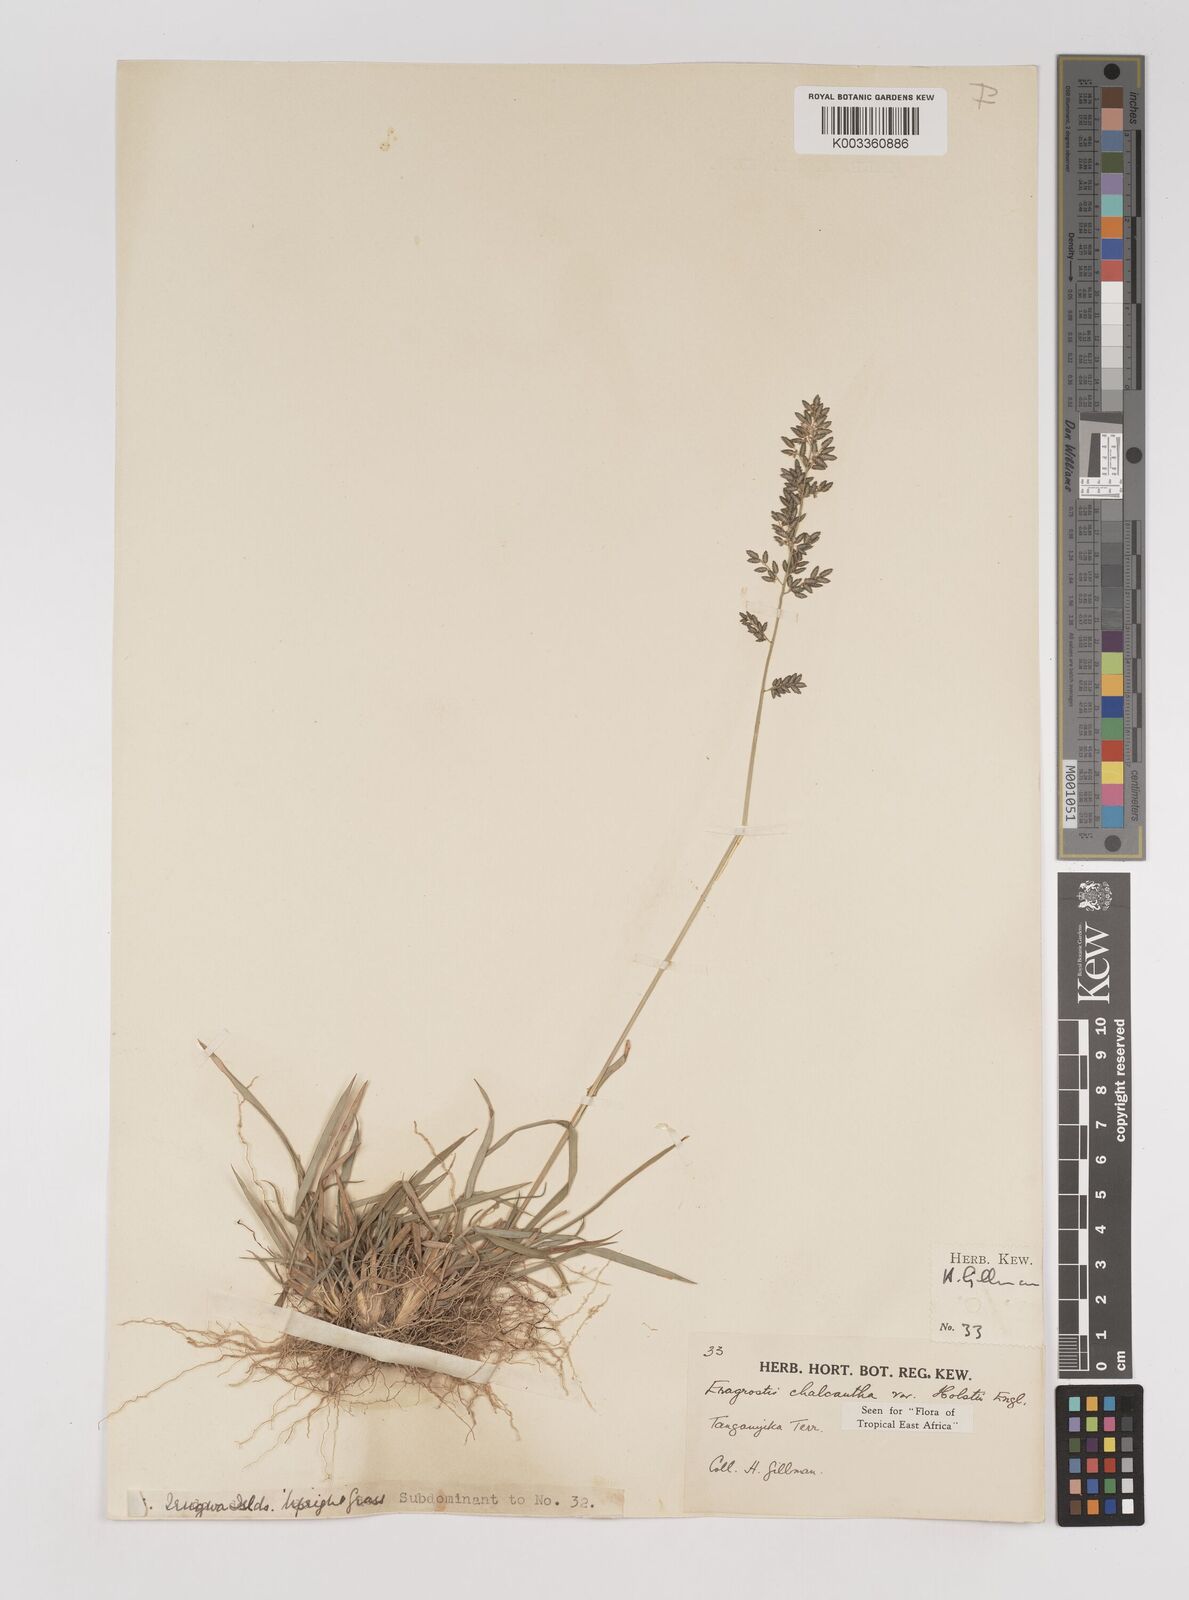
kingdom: Plantae
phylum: Tracheophyta
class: Liliopsida
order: Poales
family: Poaceae
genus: Eragrostis
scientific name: Eragrostis racemosa
